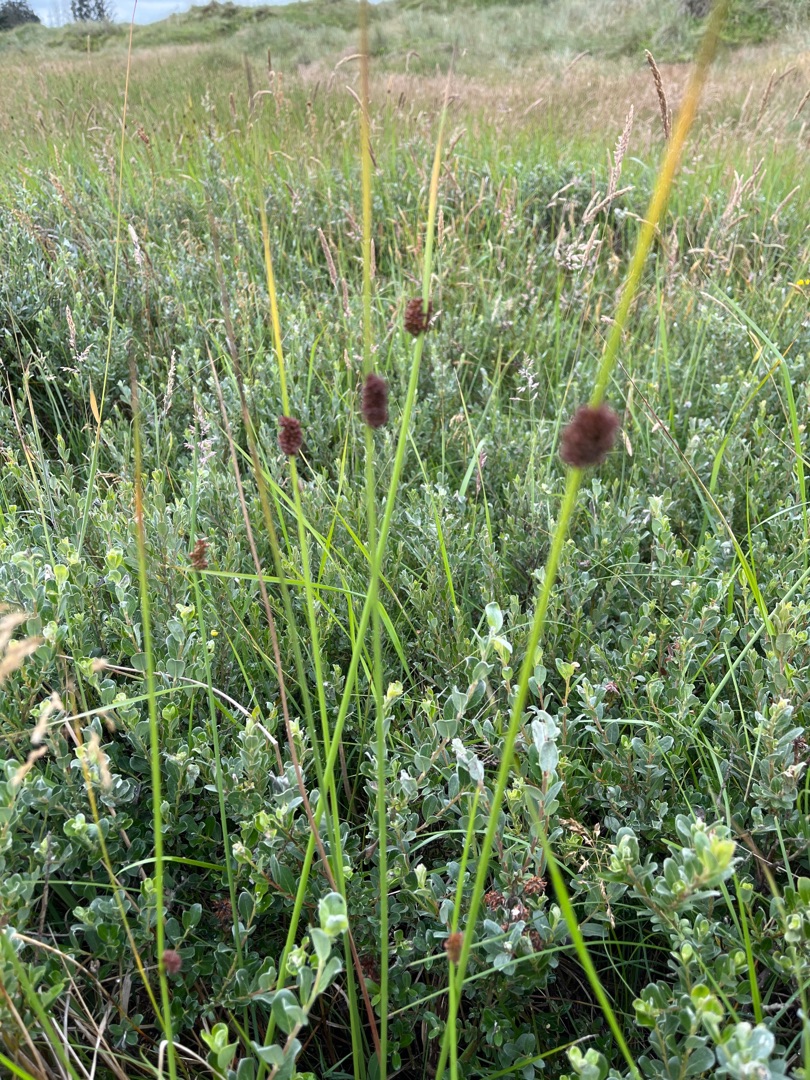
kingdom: Plantae
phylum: Tracheophyta
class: Liliopsida
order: Poales
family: Juncaceae
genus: Juncus
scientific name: Juncus conglomeratus
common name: Knop-siv
